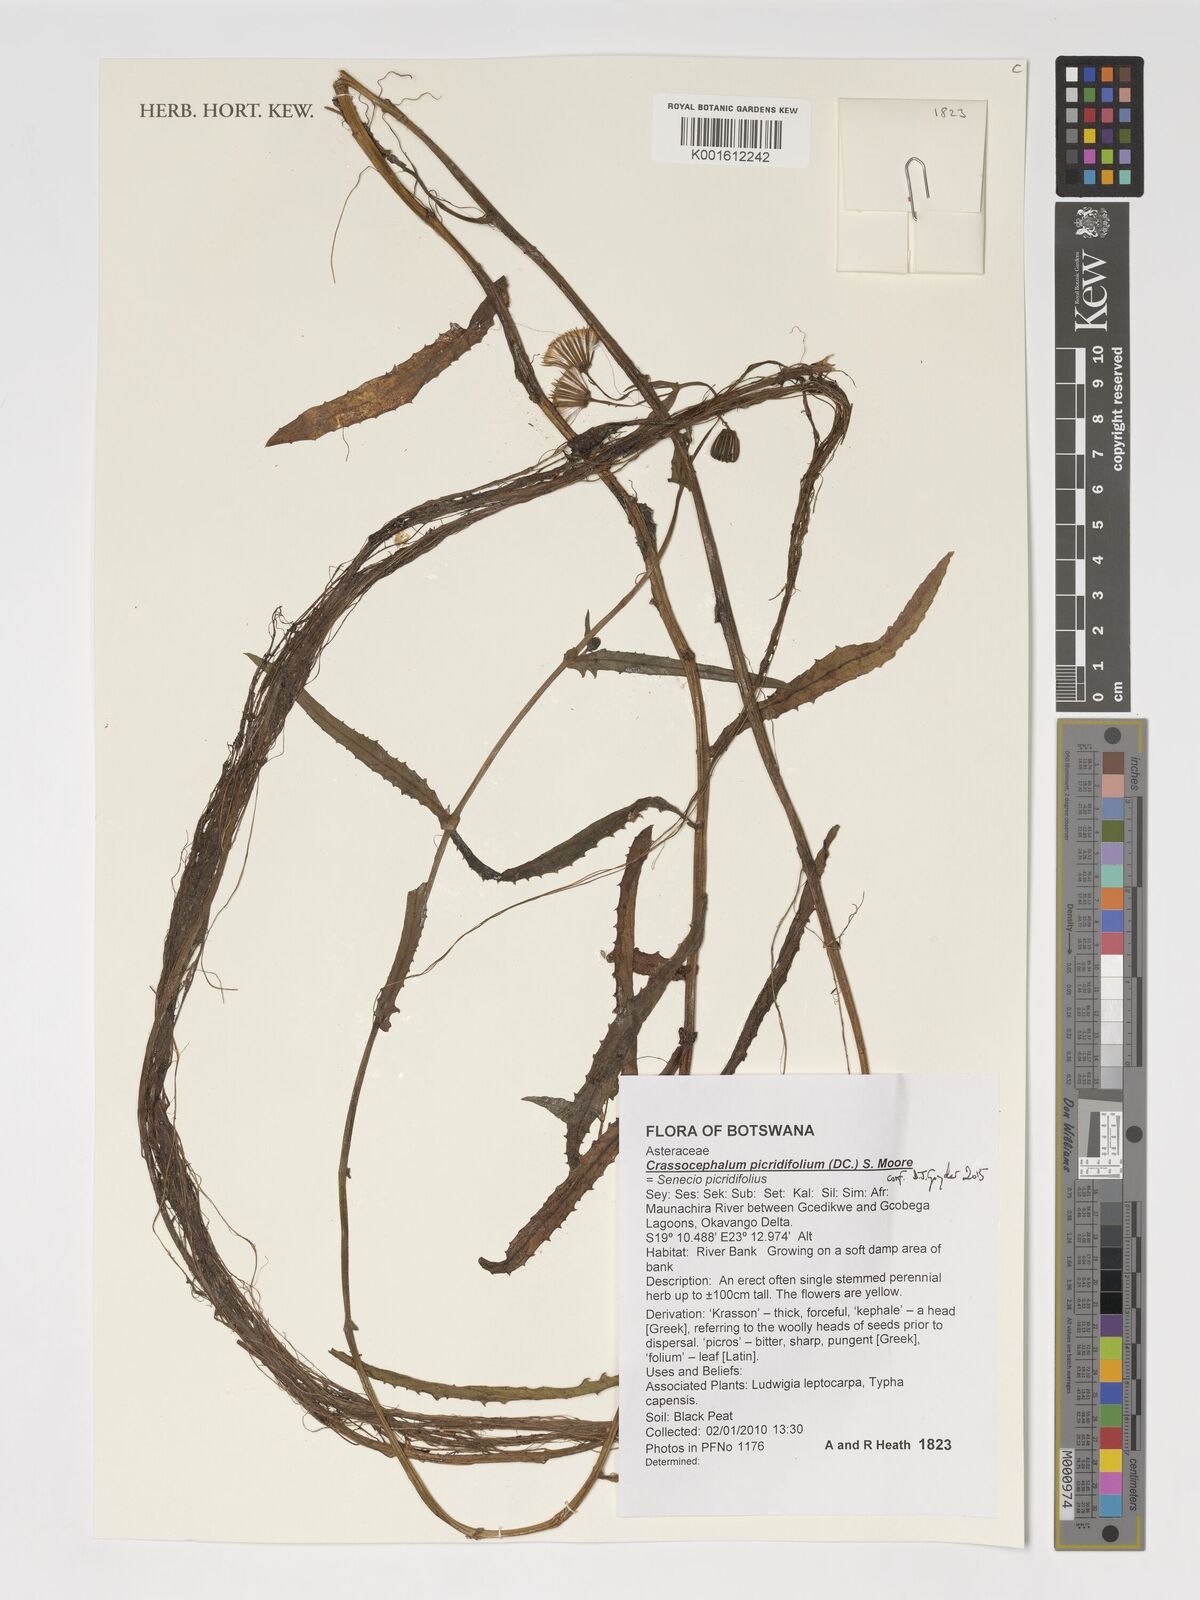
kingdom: Plantae
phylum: Tracheophyta
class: Magnoliopsida
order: Asterales
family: Asteraceae
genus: Crassocephalum
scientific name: Crassocephalum picridifolium
